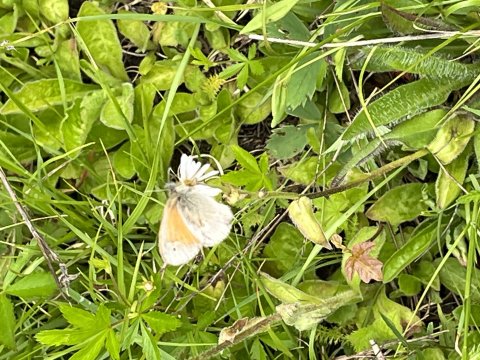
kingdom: Animalia
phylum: Arthropoda
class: Insecta
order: Lepidoptera
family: Nymphalidae
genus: Coenonympha
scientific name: Coenonympha tullia
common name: Large Heath
